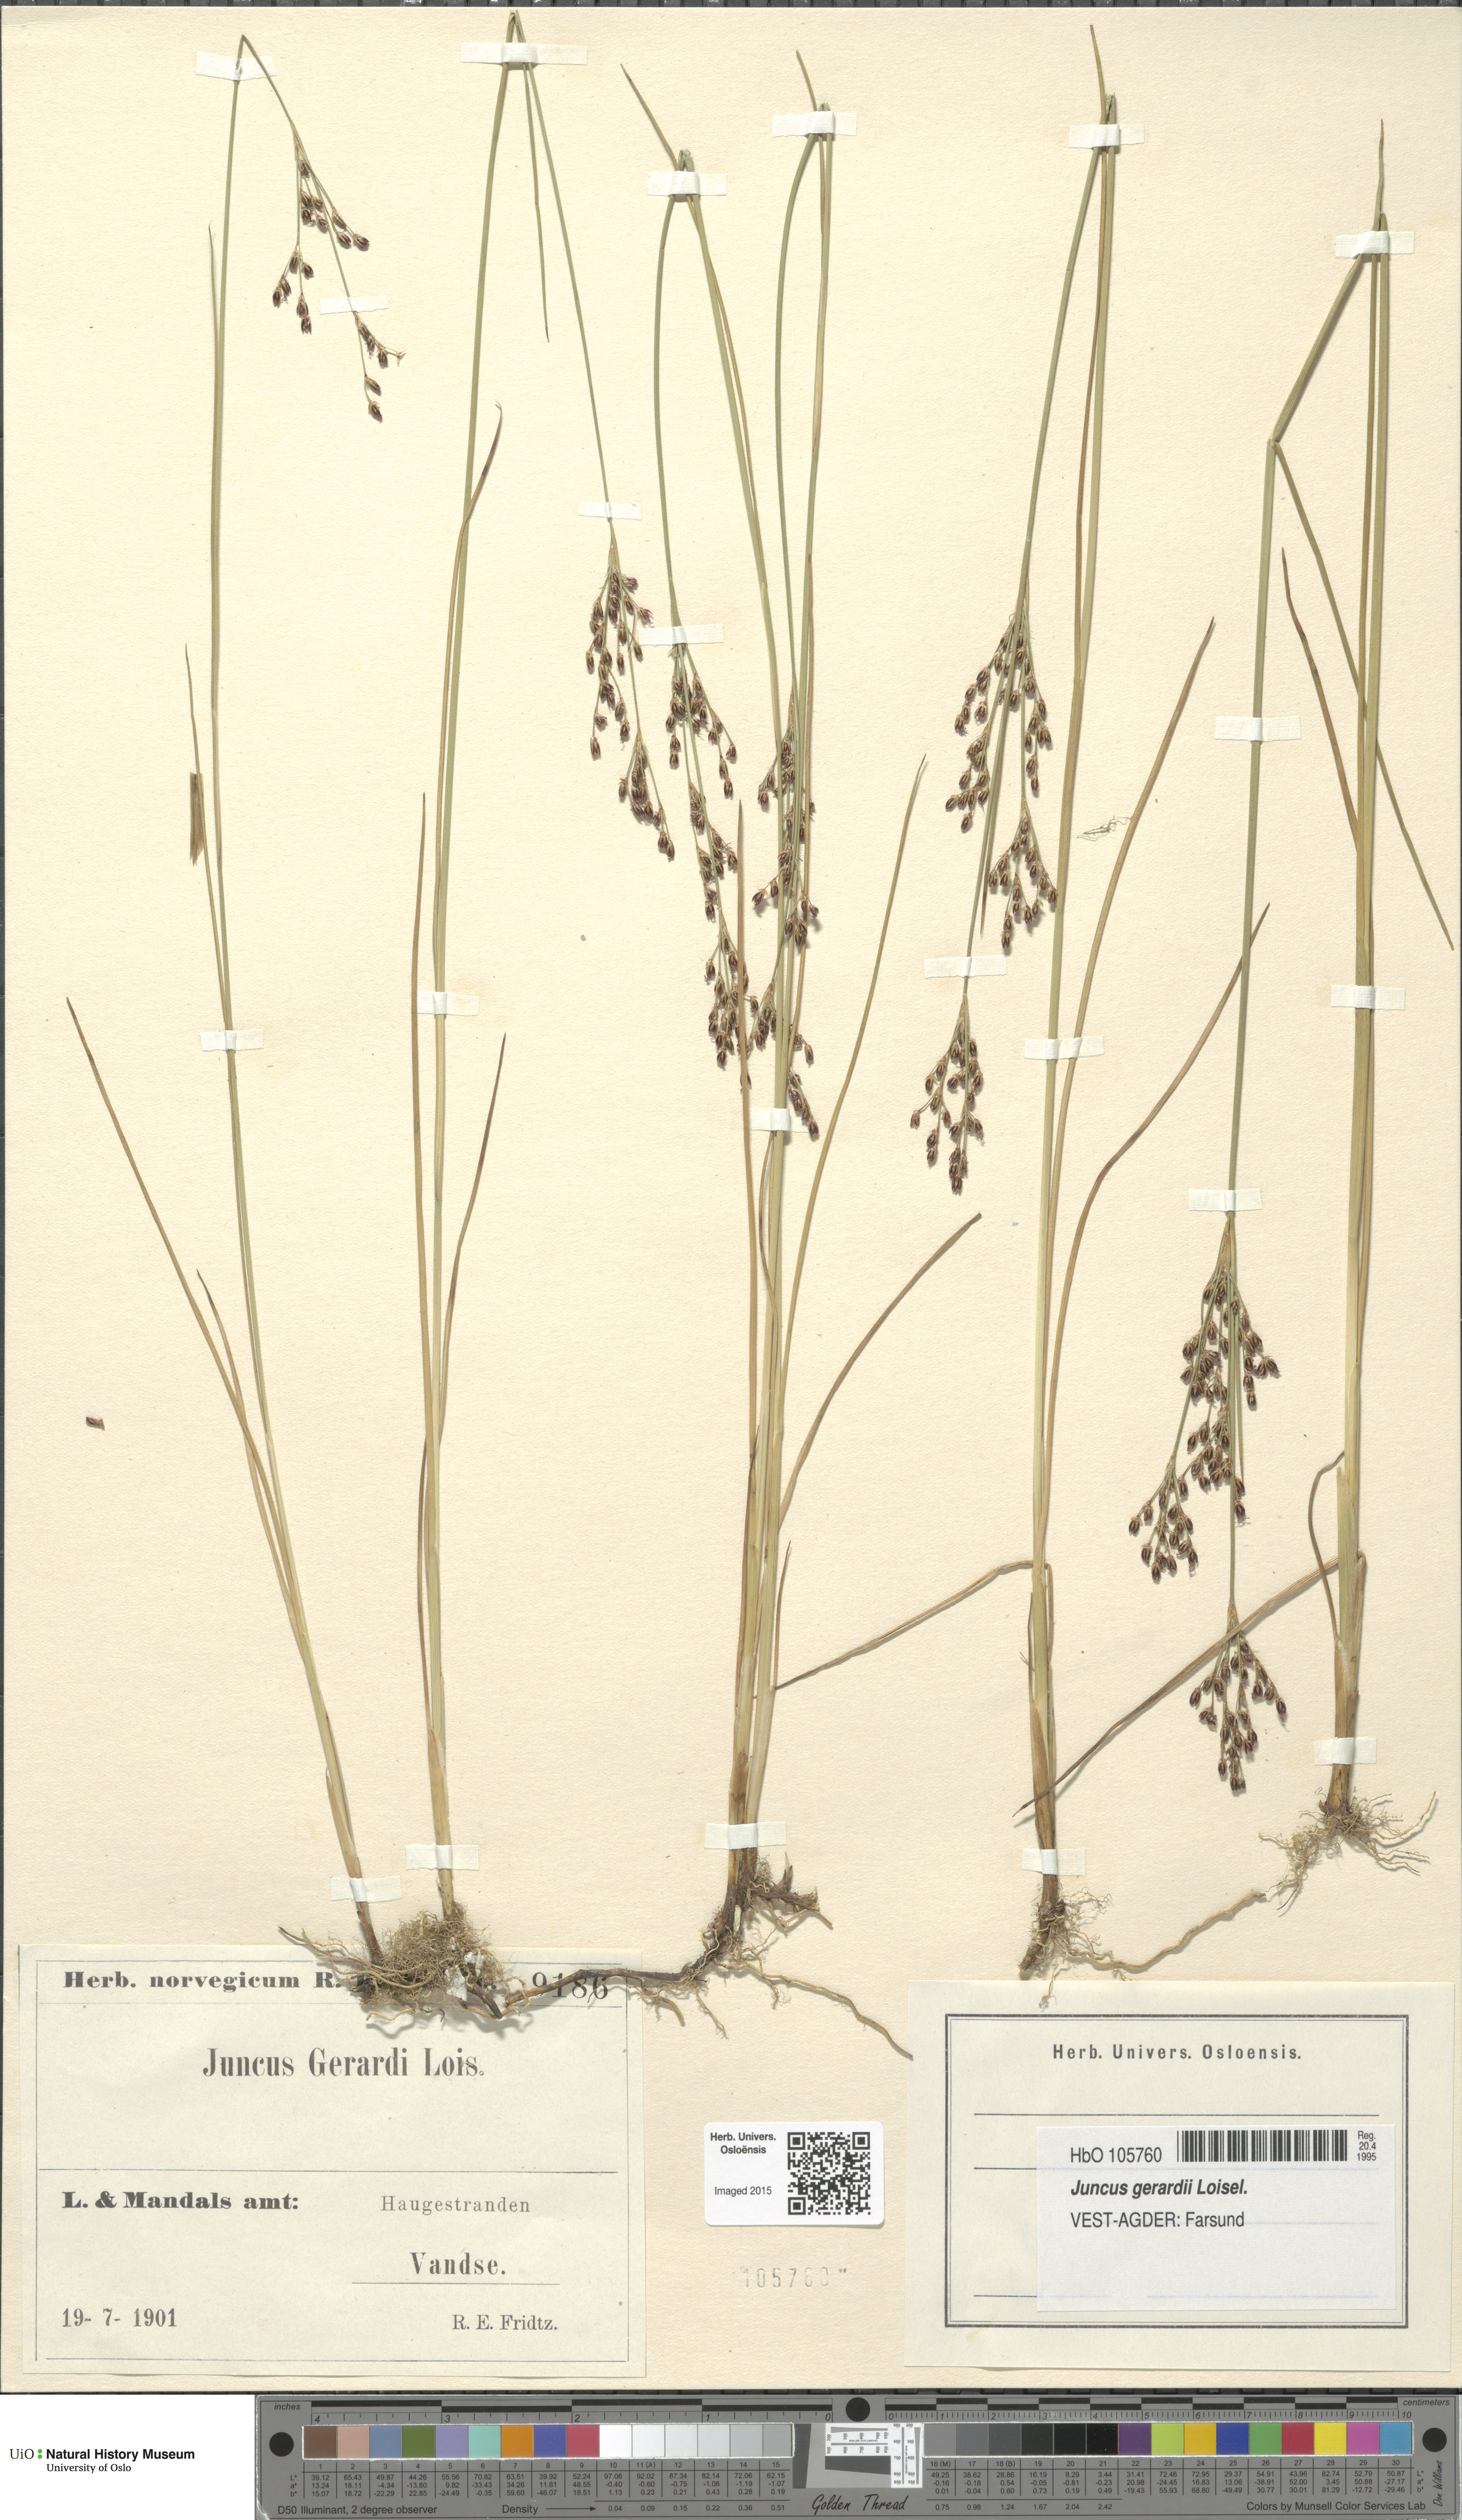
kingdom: Plantae
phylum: Tracheophyta
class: Liliopsida
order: Poales
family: Juncaceae
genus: Juncus
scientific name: Juncus gerardi
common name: Saltmarsh rush
